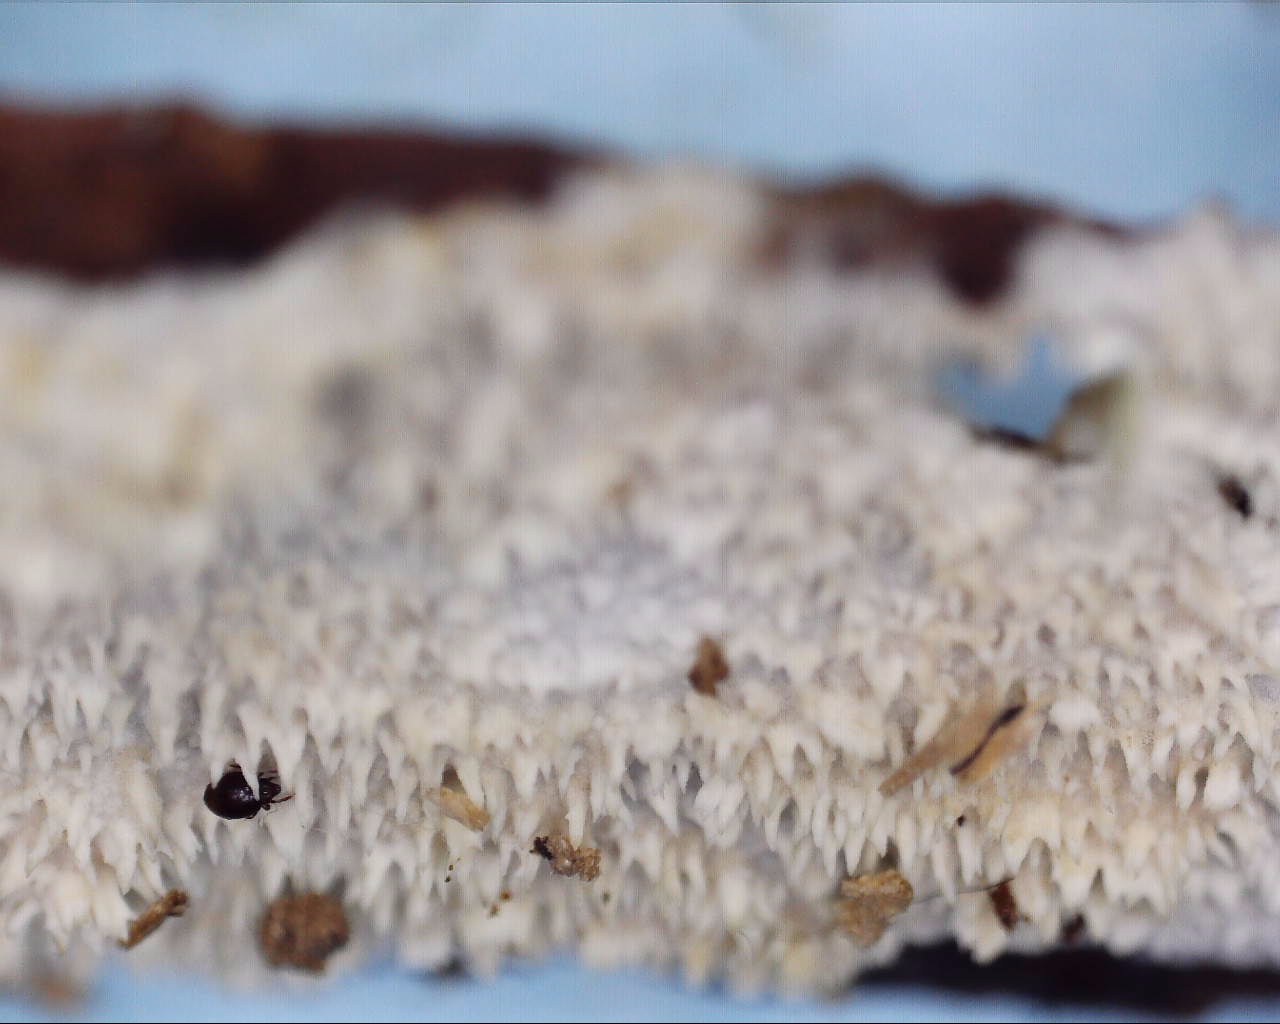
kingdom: Fungi
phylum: Basidiomycota
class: Agaricomycetes
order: Corticiales
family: Corticiaceae
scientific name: Corticiaceae
